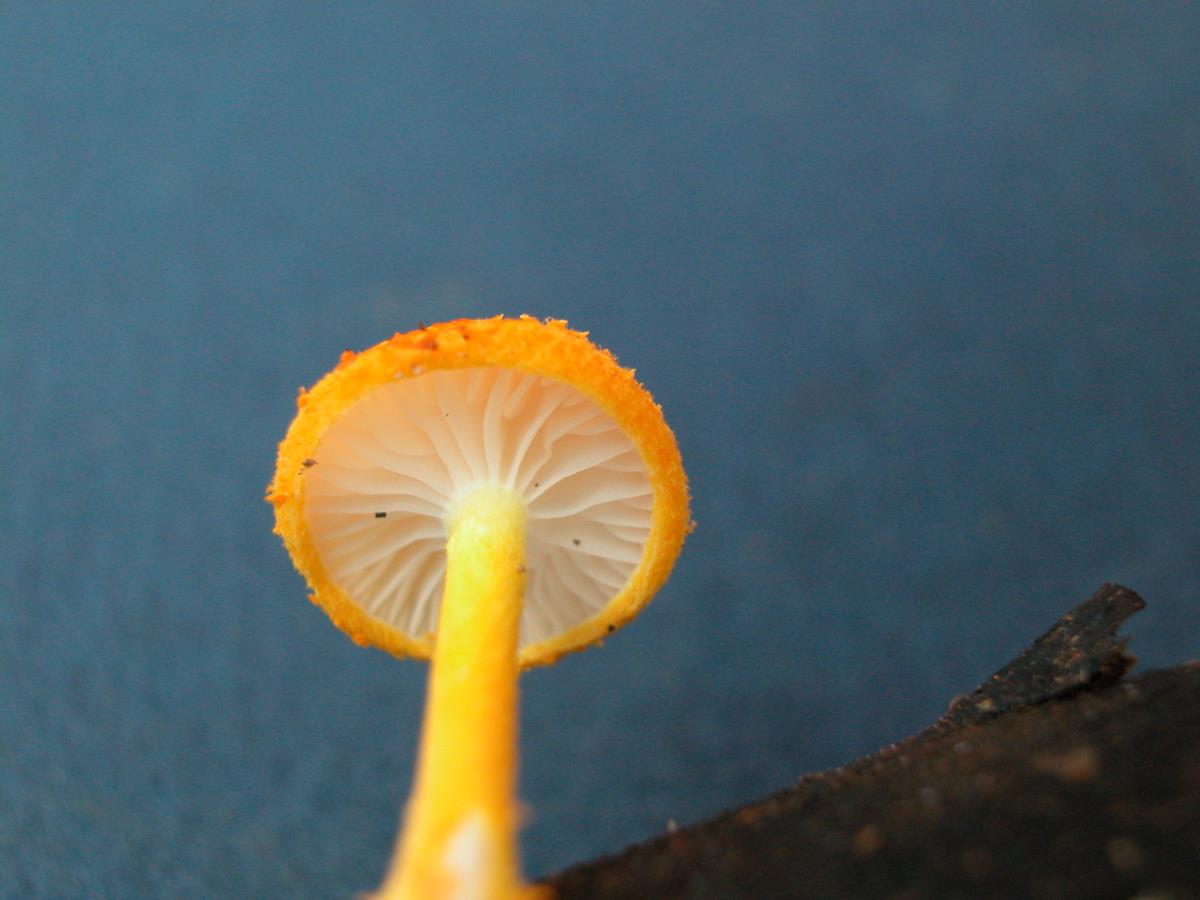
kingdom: Fungi
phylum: Basidiomycota
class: Agaricomycetes
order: Agaricales
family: Physalacriaceae
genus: Cyptotrama
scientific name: Cyptotrama asprata
